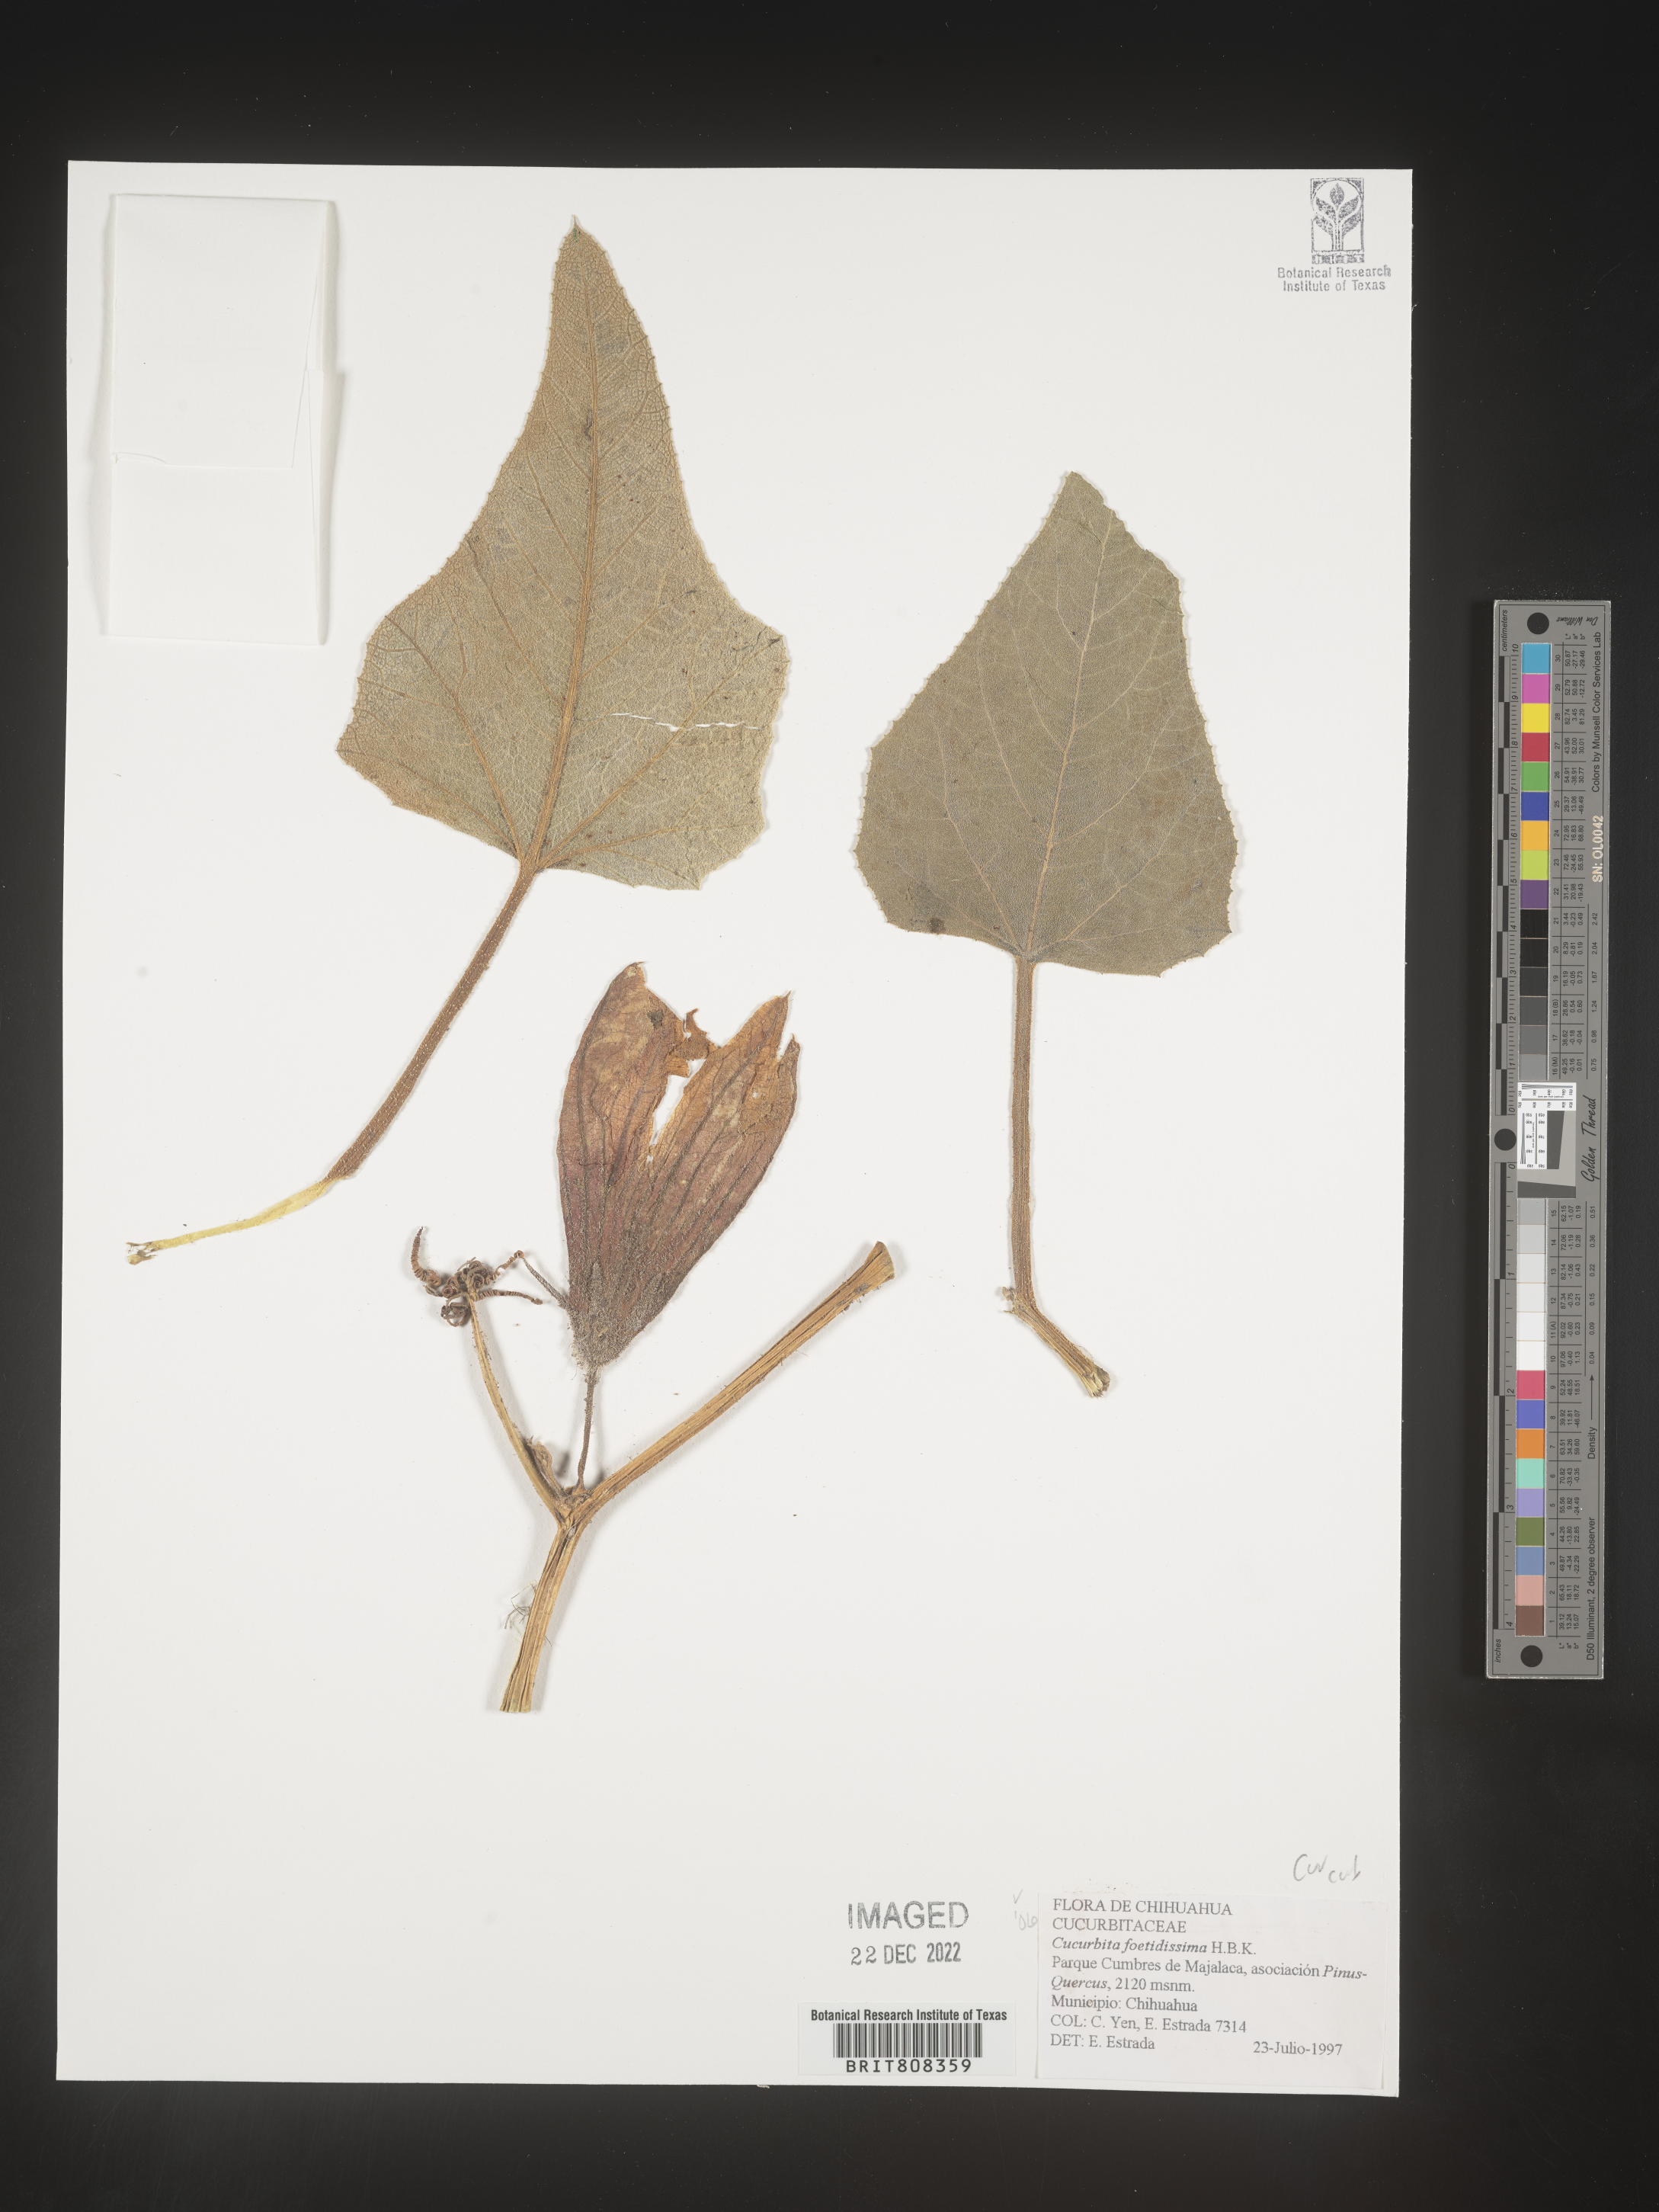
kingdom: Plantae
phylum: Tracheophyta
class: Magnoliopsida
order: Cucurbitales
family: Cucurbitaceae
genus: Cucurbita
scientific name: Cucurbita
